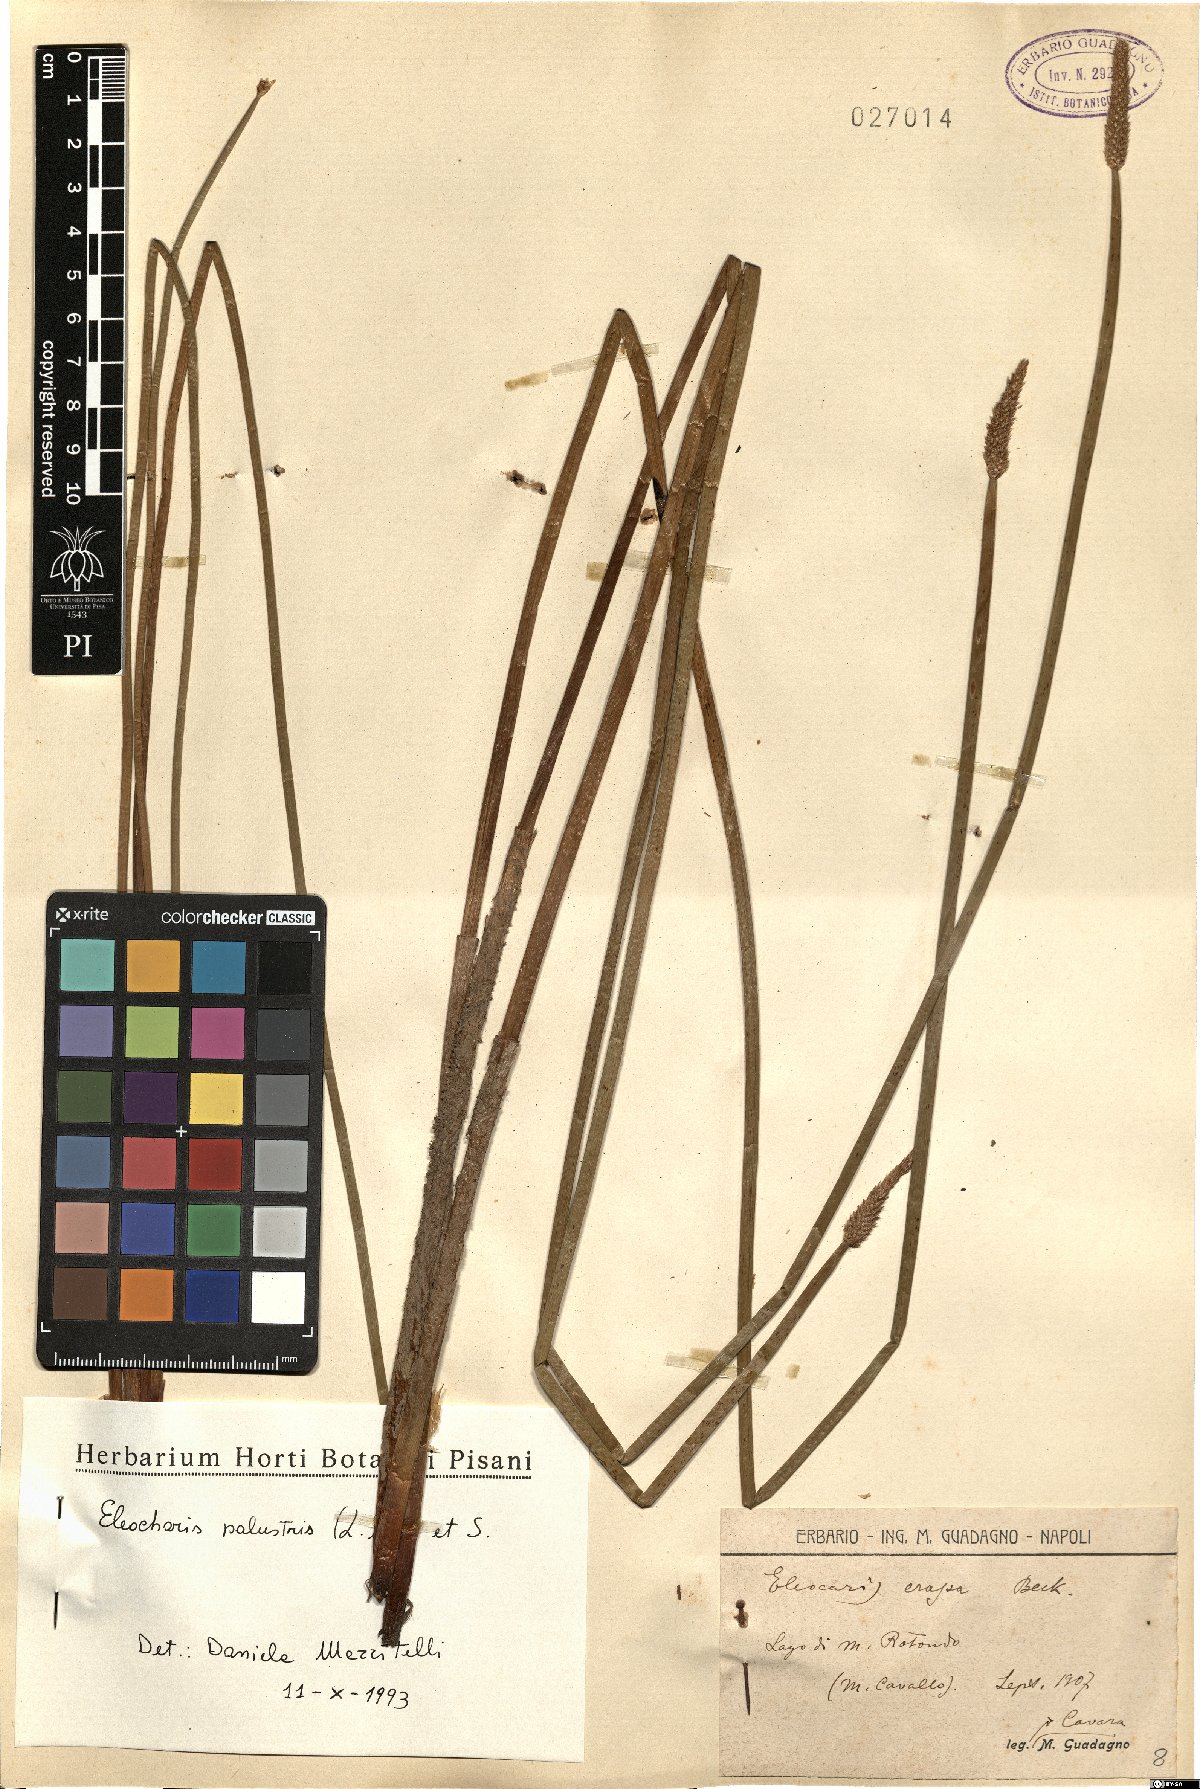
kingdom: Plantae
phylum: Tracheophyta
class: Liliopsida
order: Poales
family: Cyperaceae
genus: Eleocharis
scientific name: Eleocharis palustris
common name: Common spike-rush
